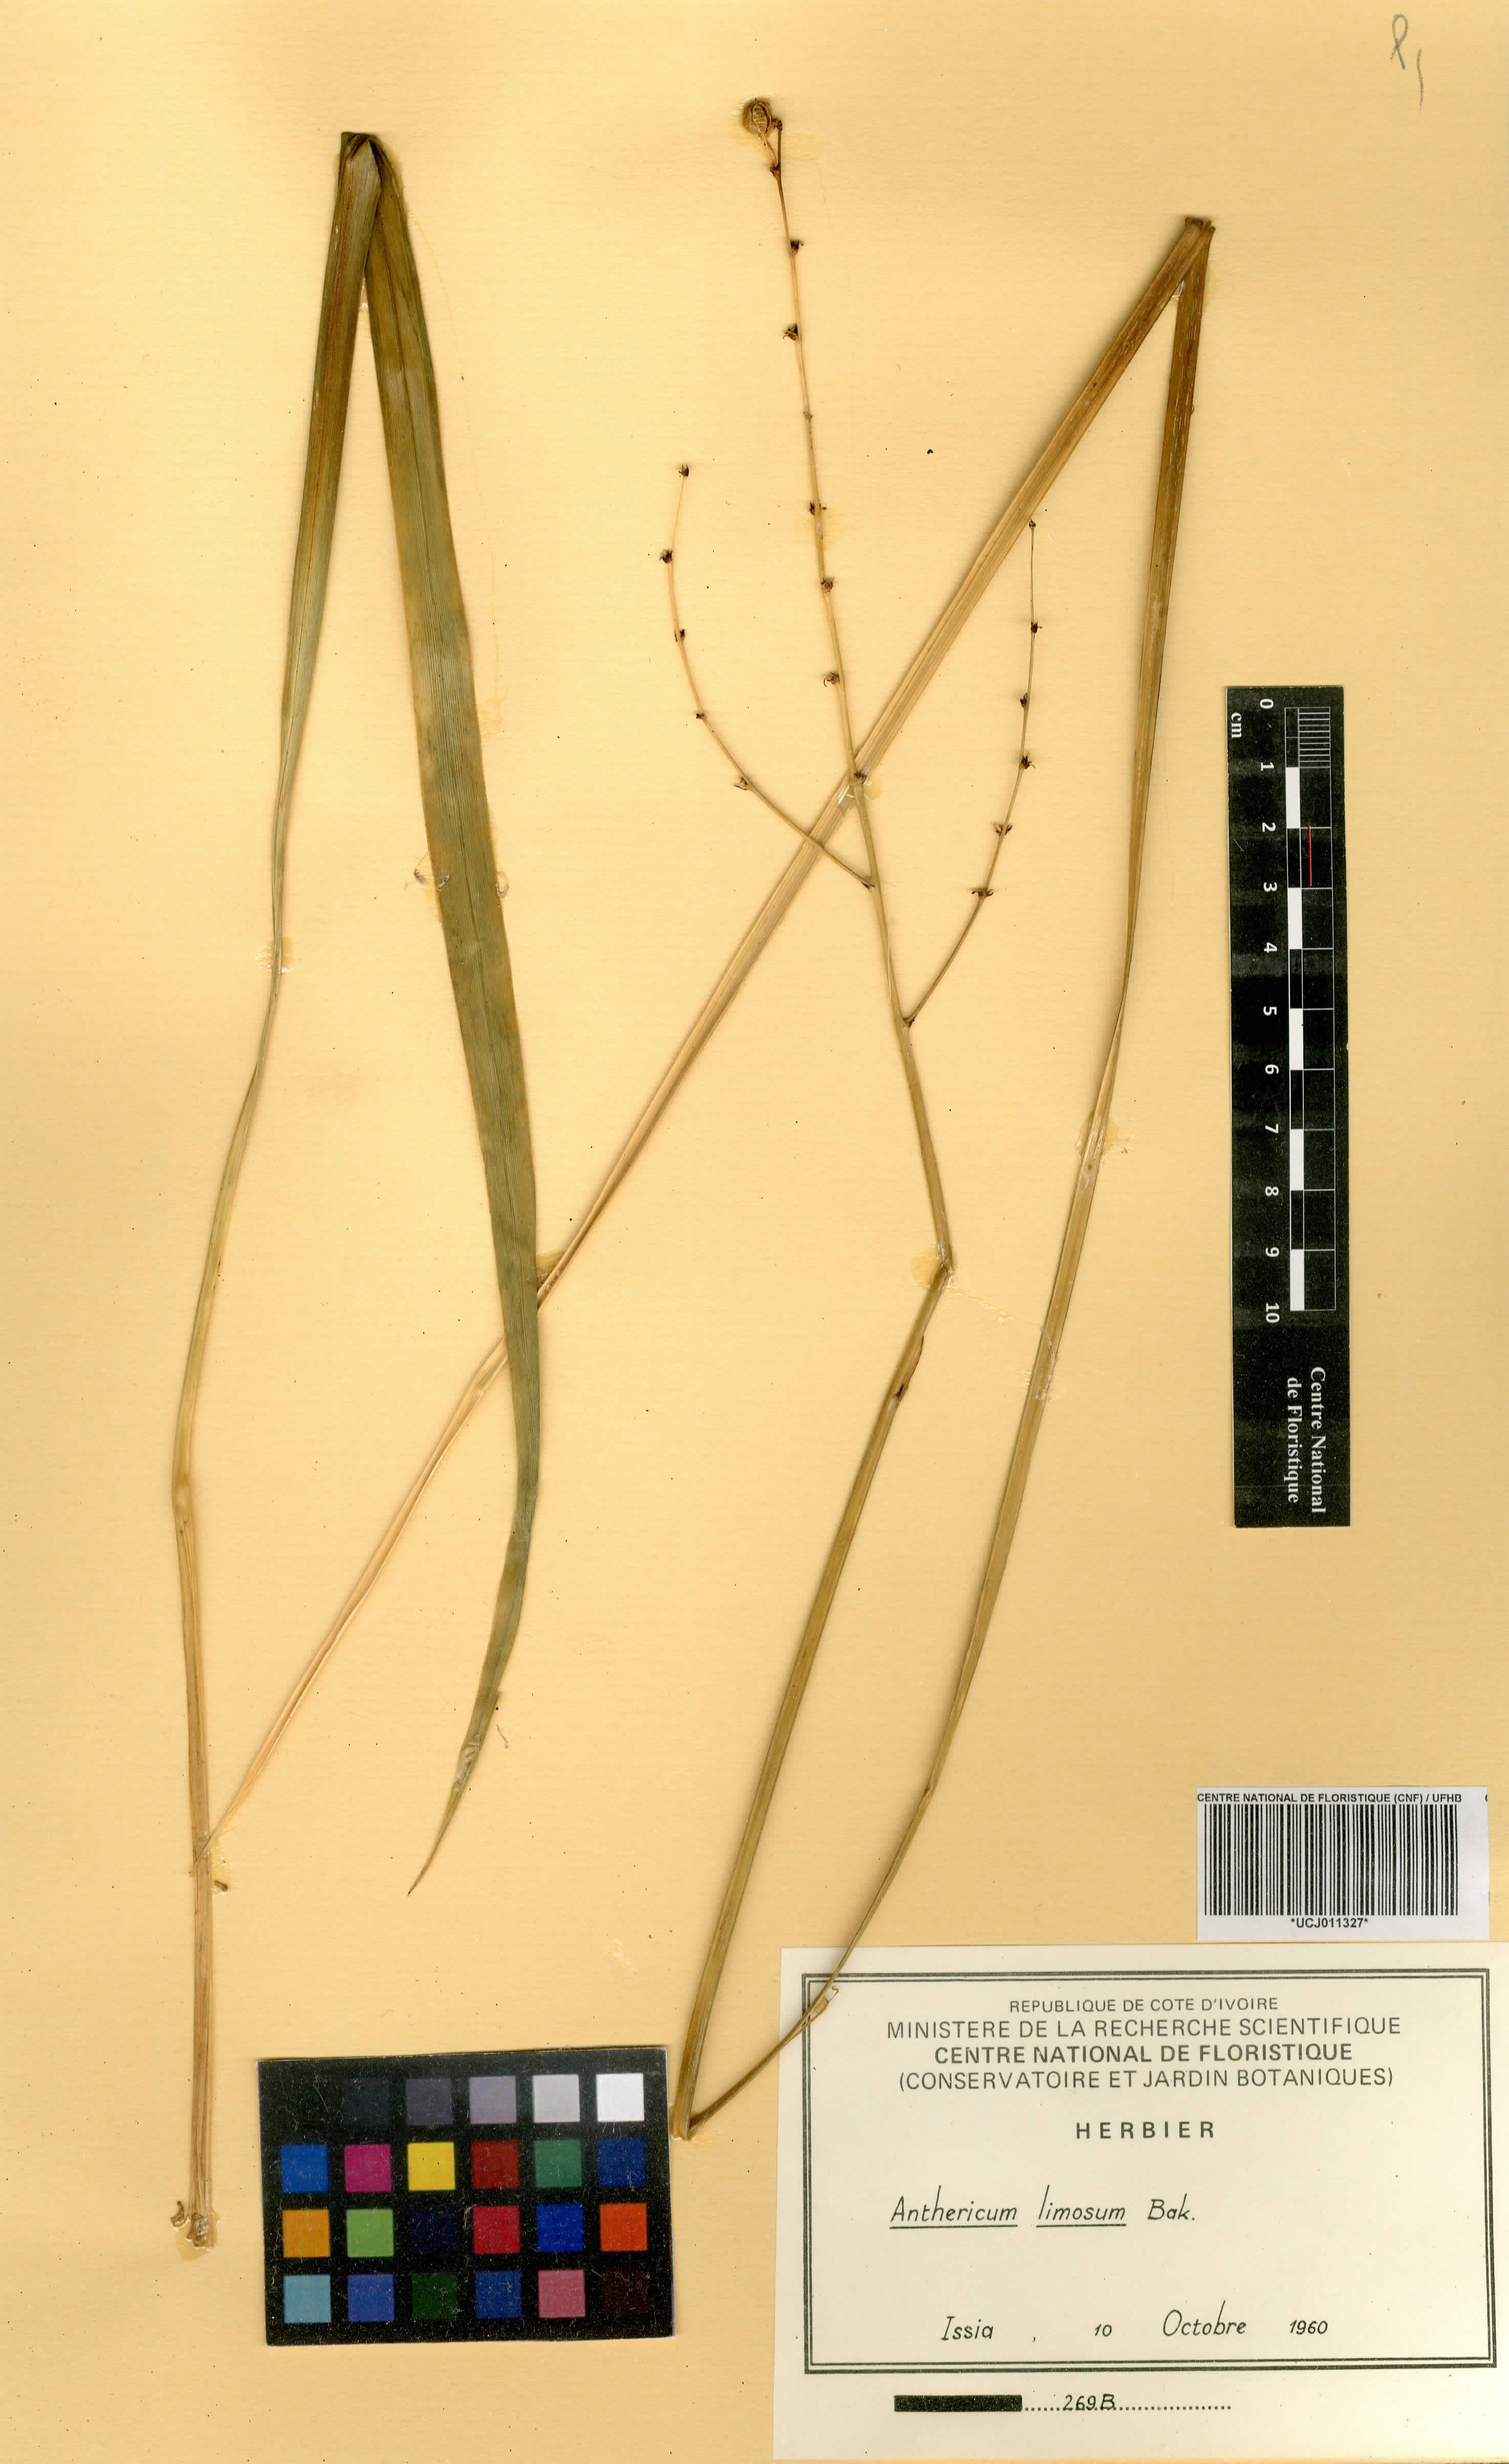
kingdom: Plantae
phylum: Tracheophyta
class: Liliopsida
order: Asparagales
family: Asparagaceae
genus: Chlorophytum
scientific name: Chlorophytum limosum
